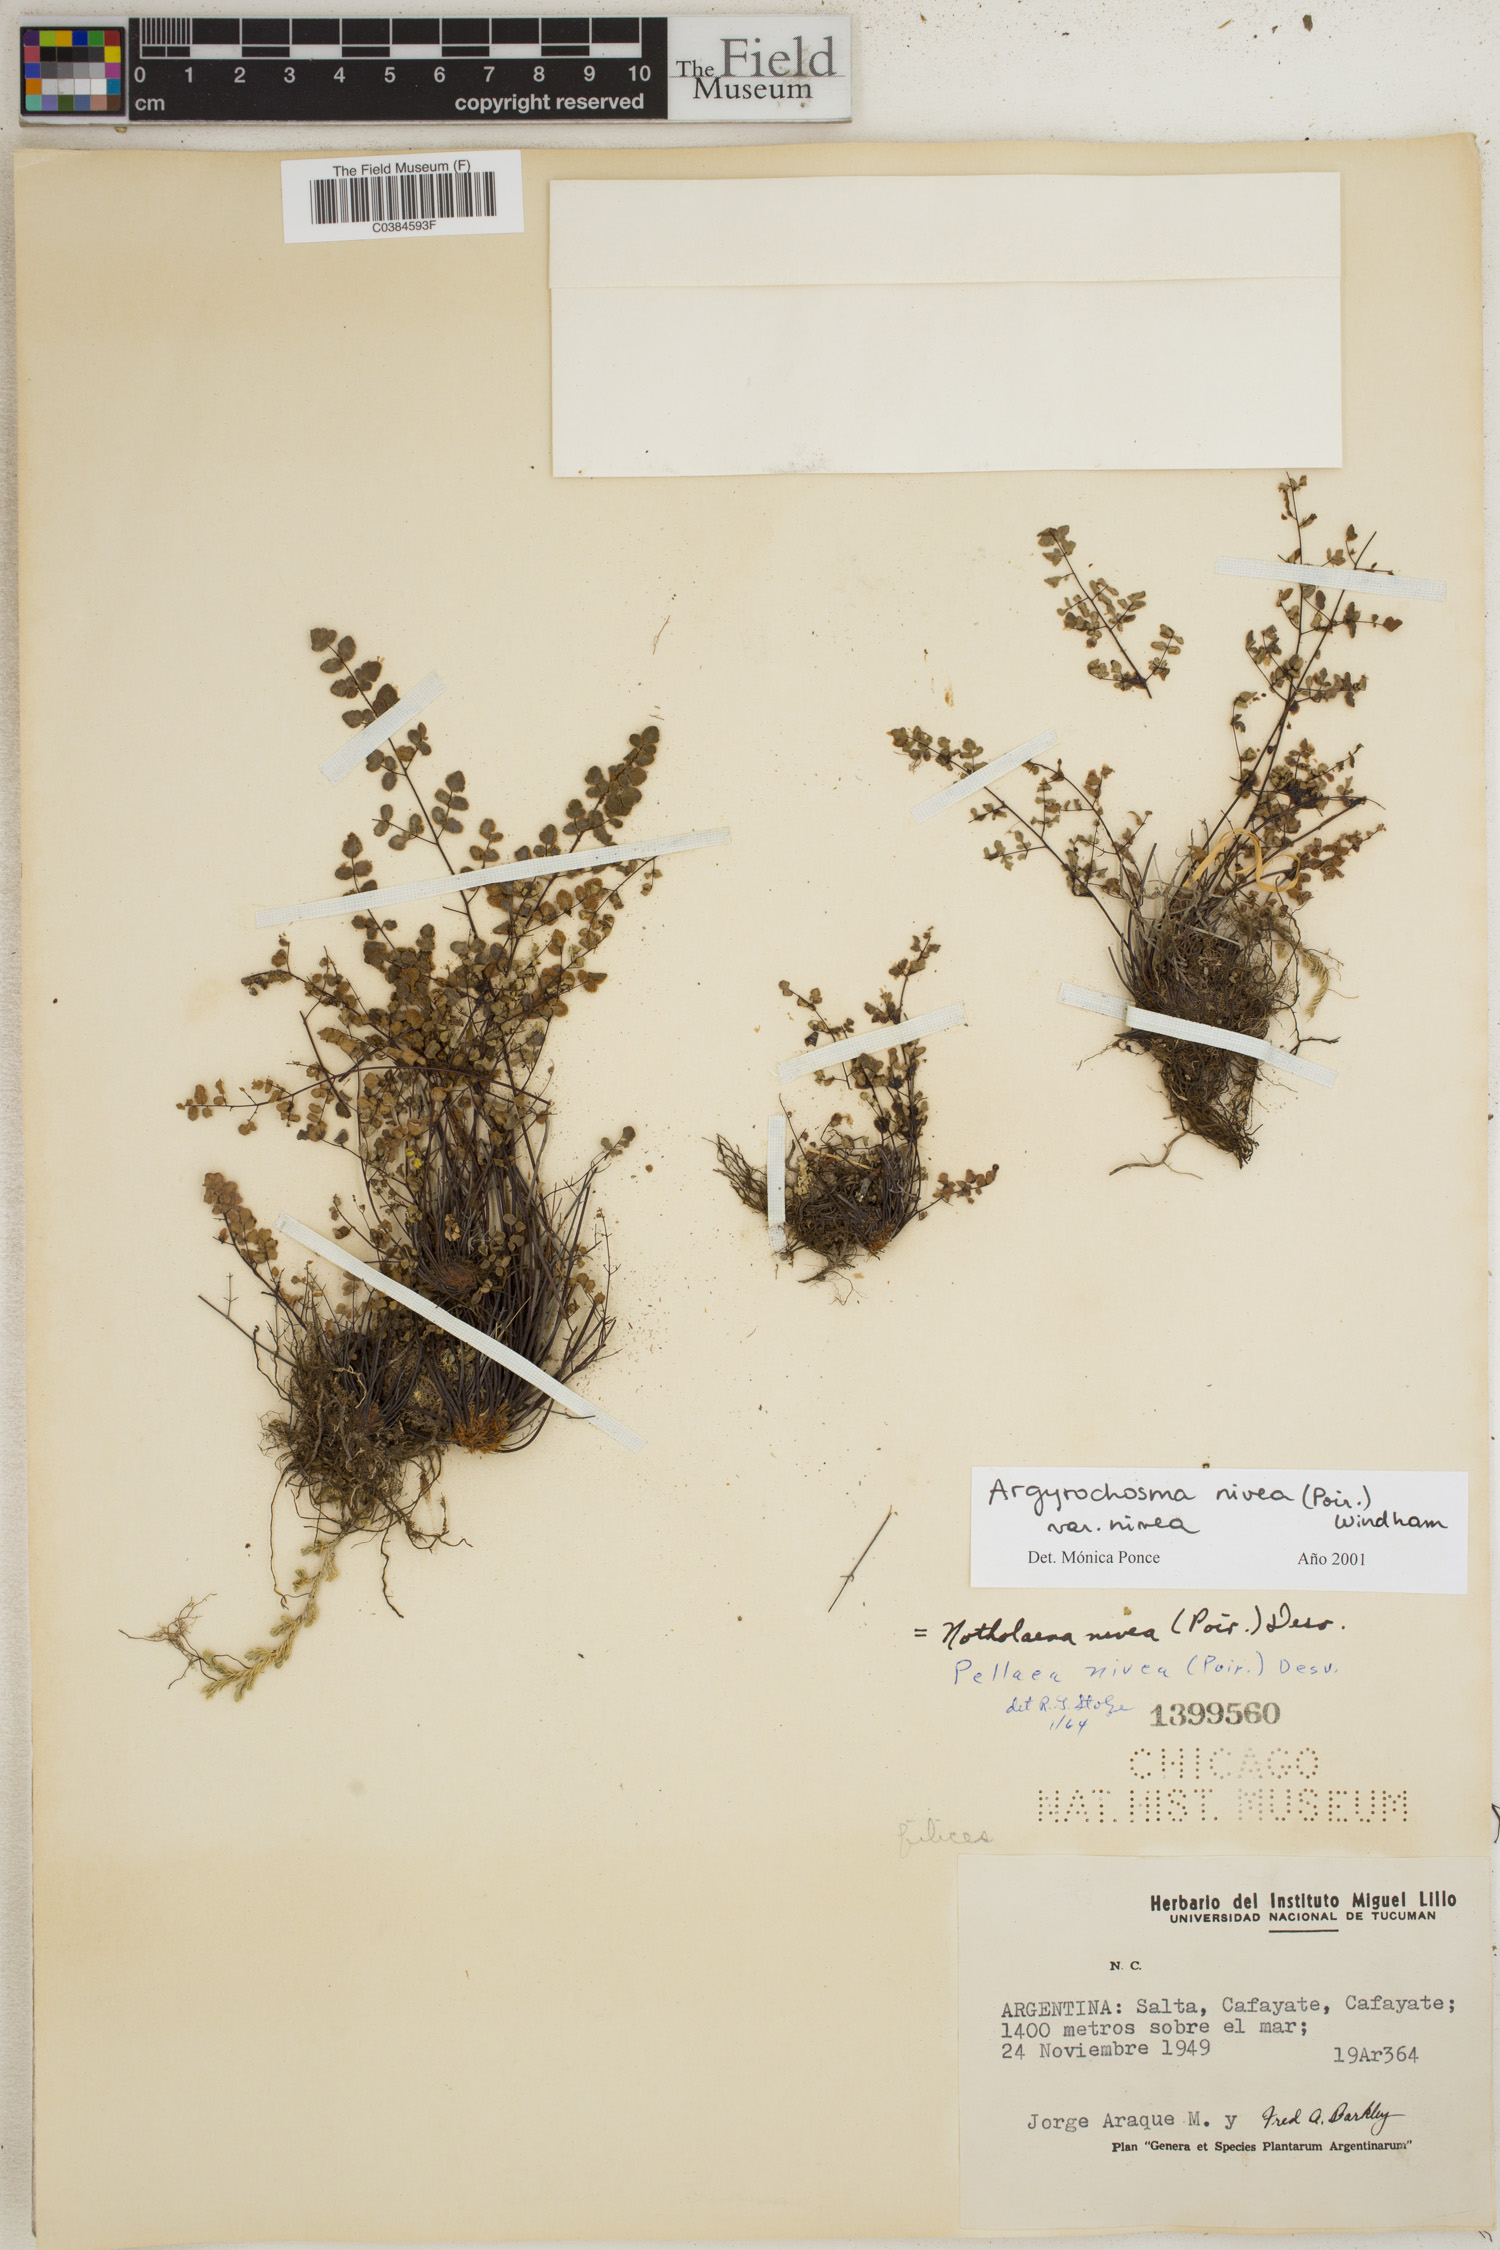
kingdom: Plantae
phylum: Tracheophyta
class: Polypodiopsida
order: Polypodiales
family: Pteridaceae
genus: Argyrochosma
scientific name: Argyrochosma nivea
